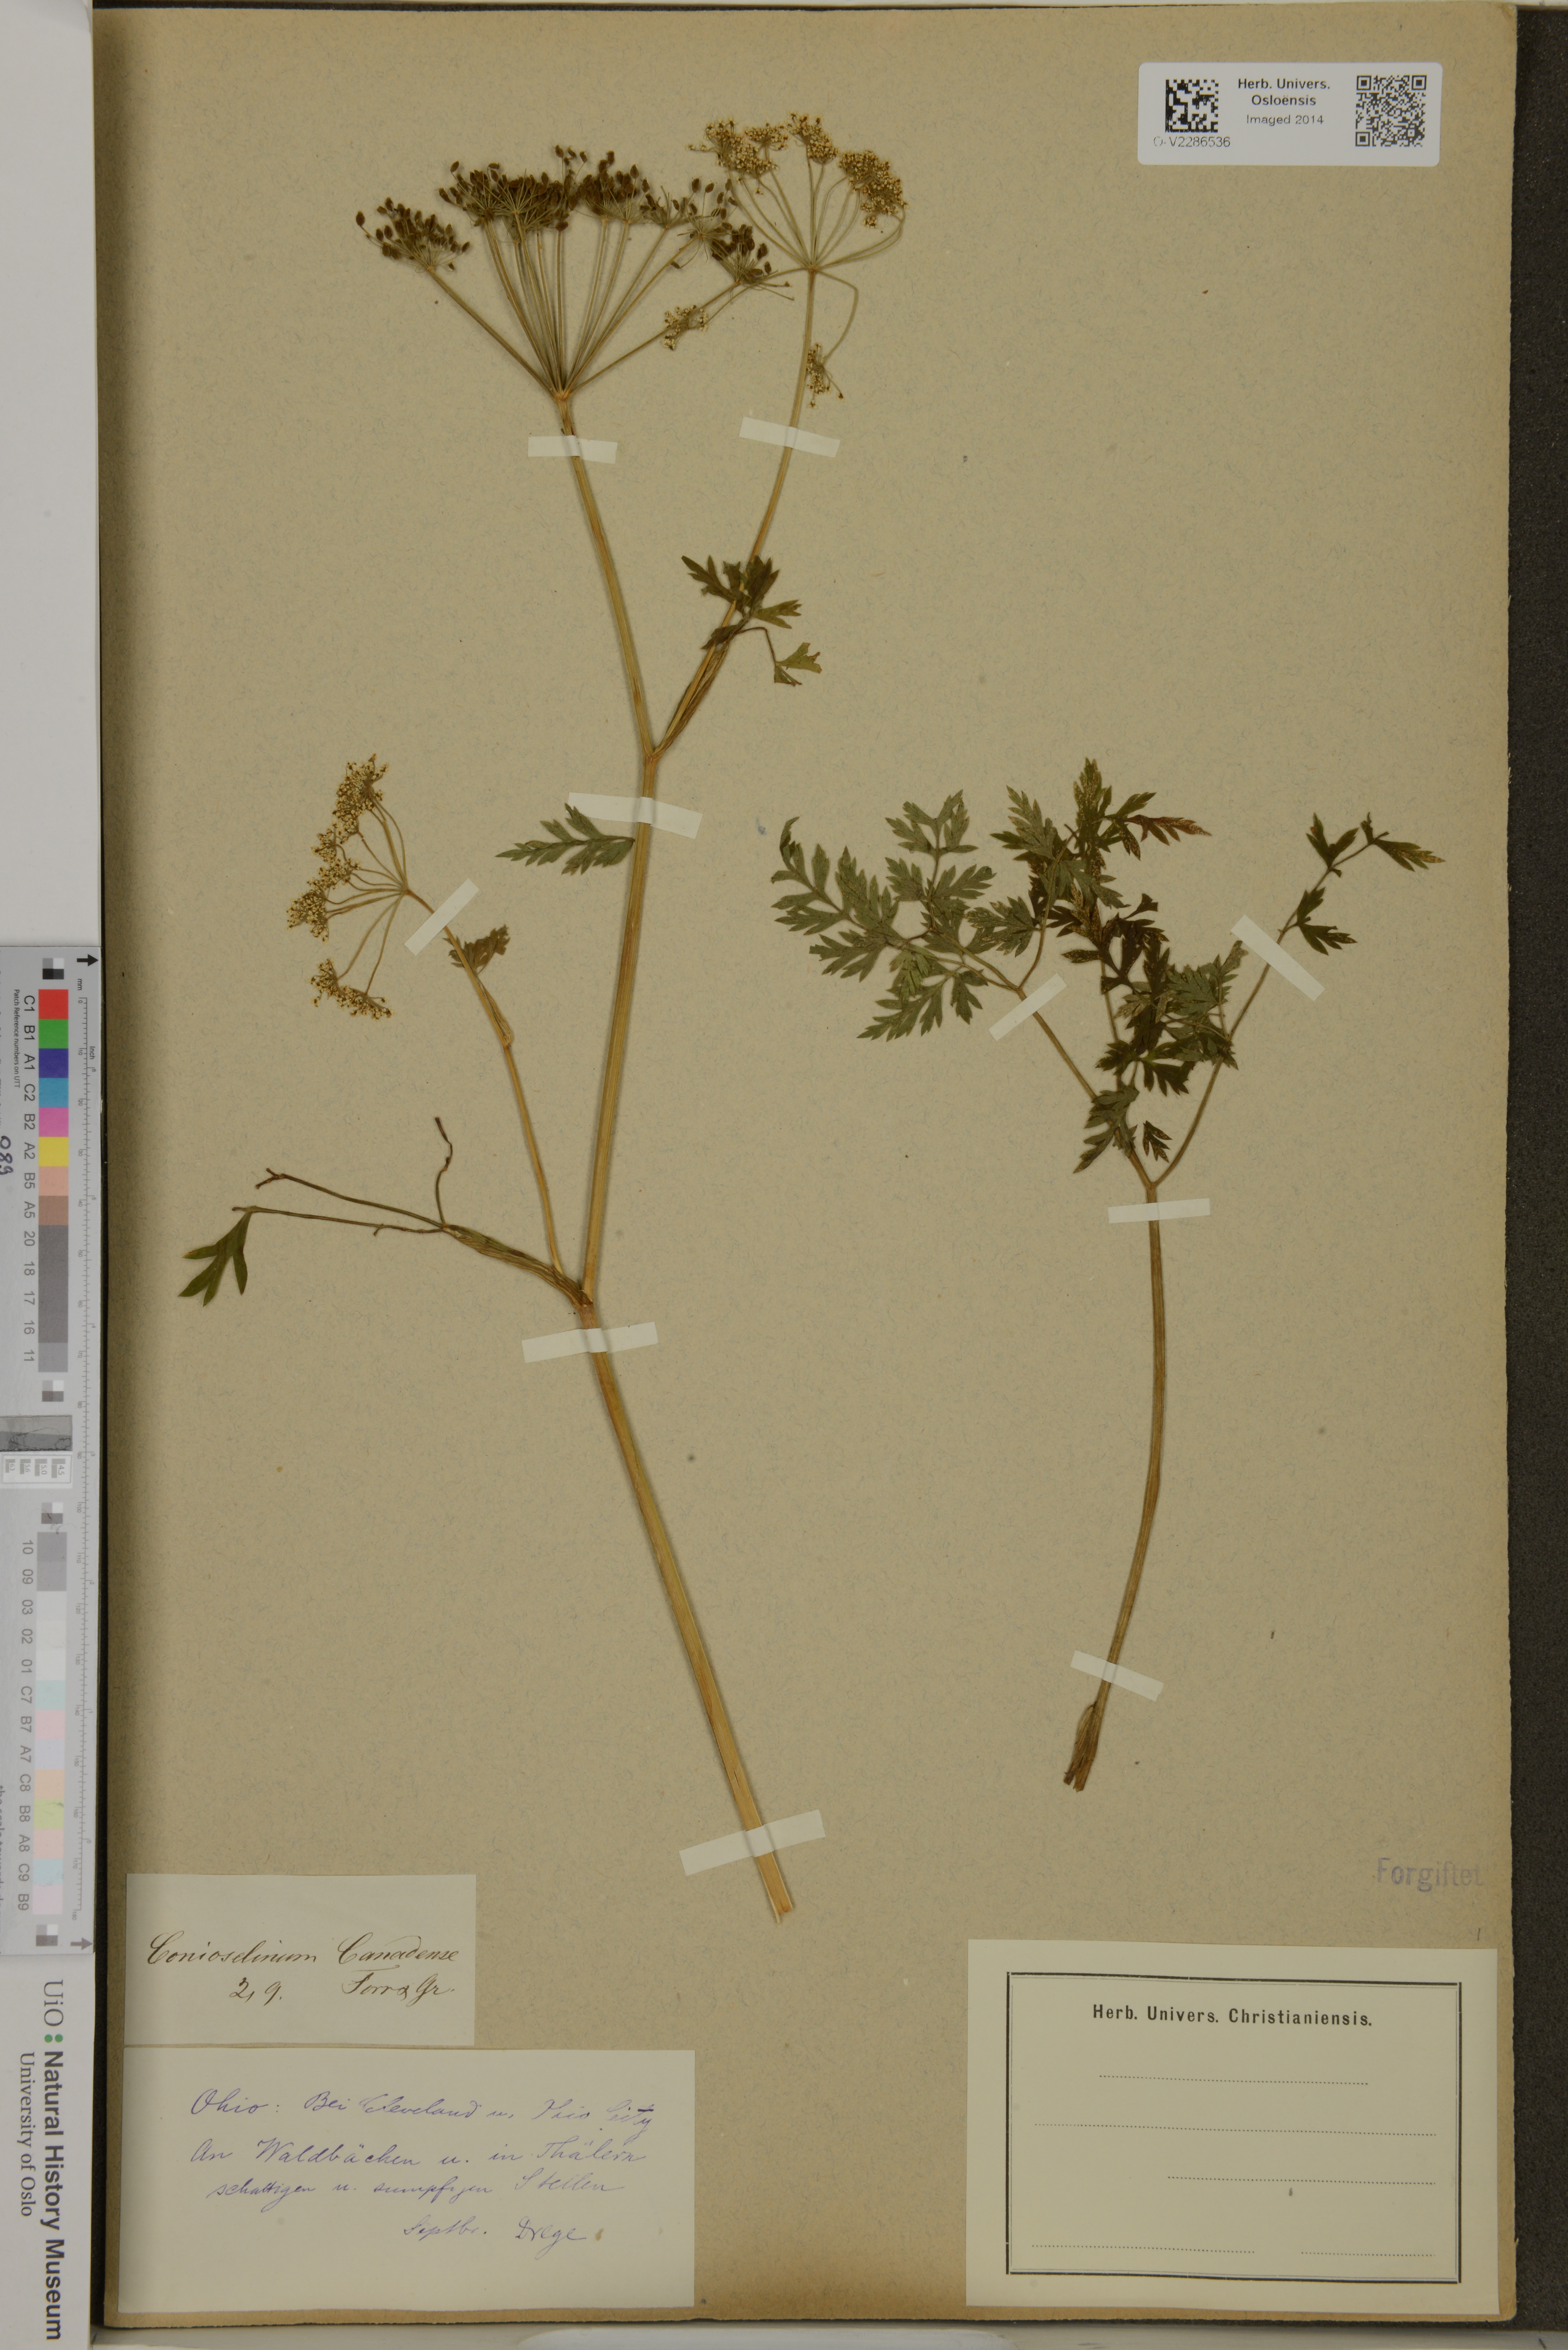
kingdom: Plantae
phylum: Tracheophyta
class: Magnoliopsida
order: Apiales
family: Apiaceae
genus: Kreidion
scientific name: Kreidion chinensis
